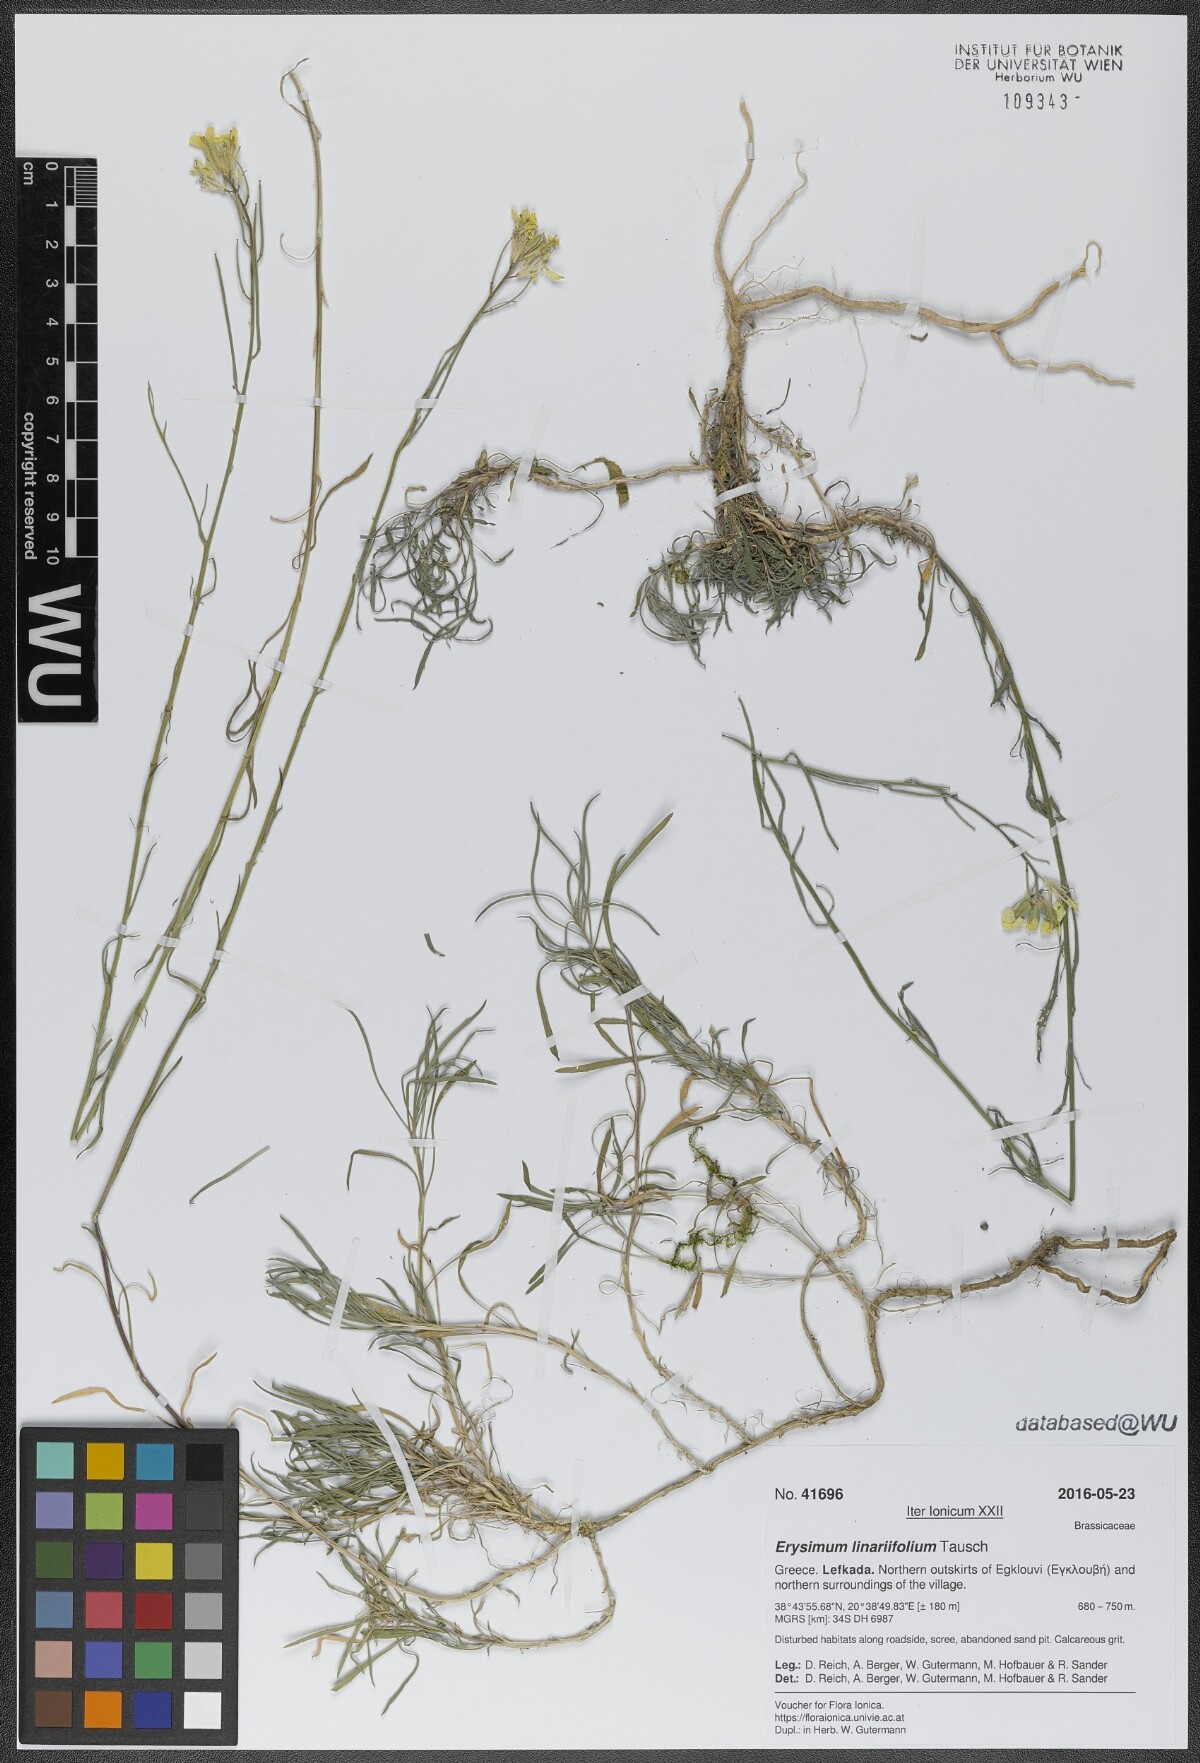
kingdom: Plantae
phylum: Tracheophyta
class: Magnoliopsida
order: Brassicales
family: Brassicaceae
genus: Erysimum
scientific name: Erysimum linariifolium
